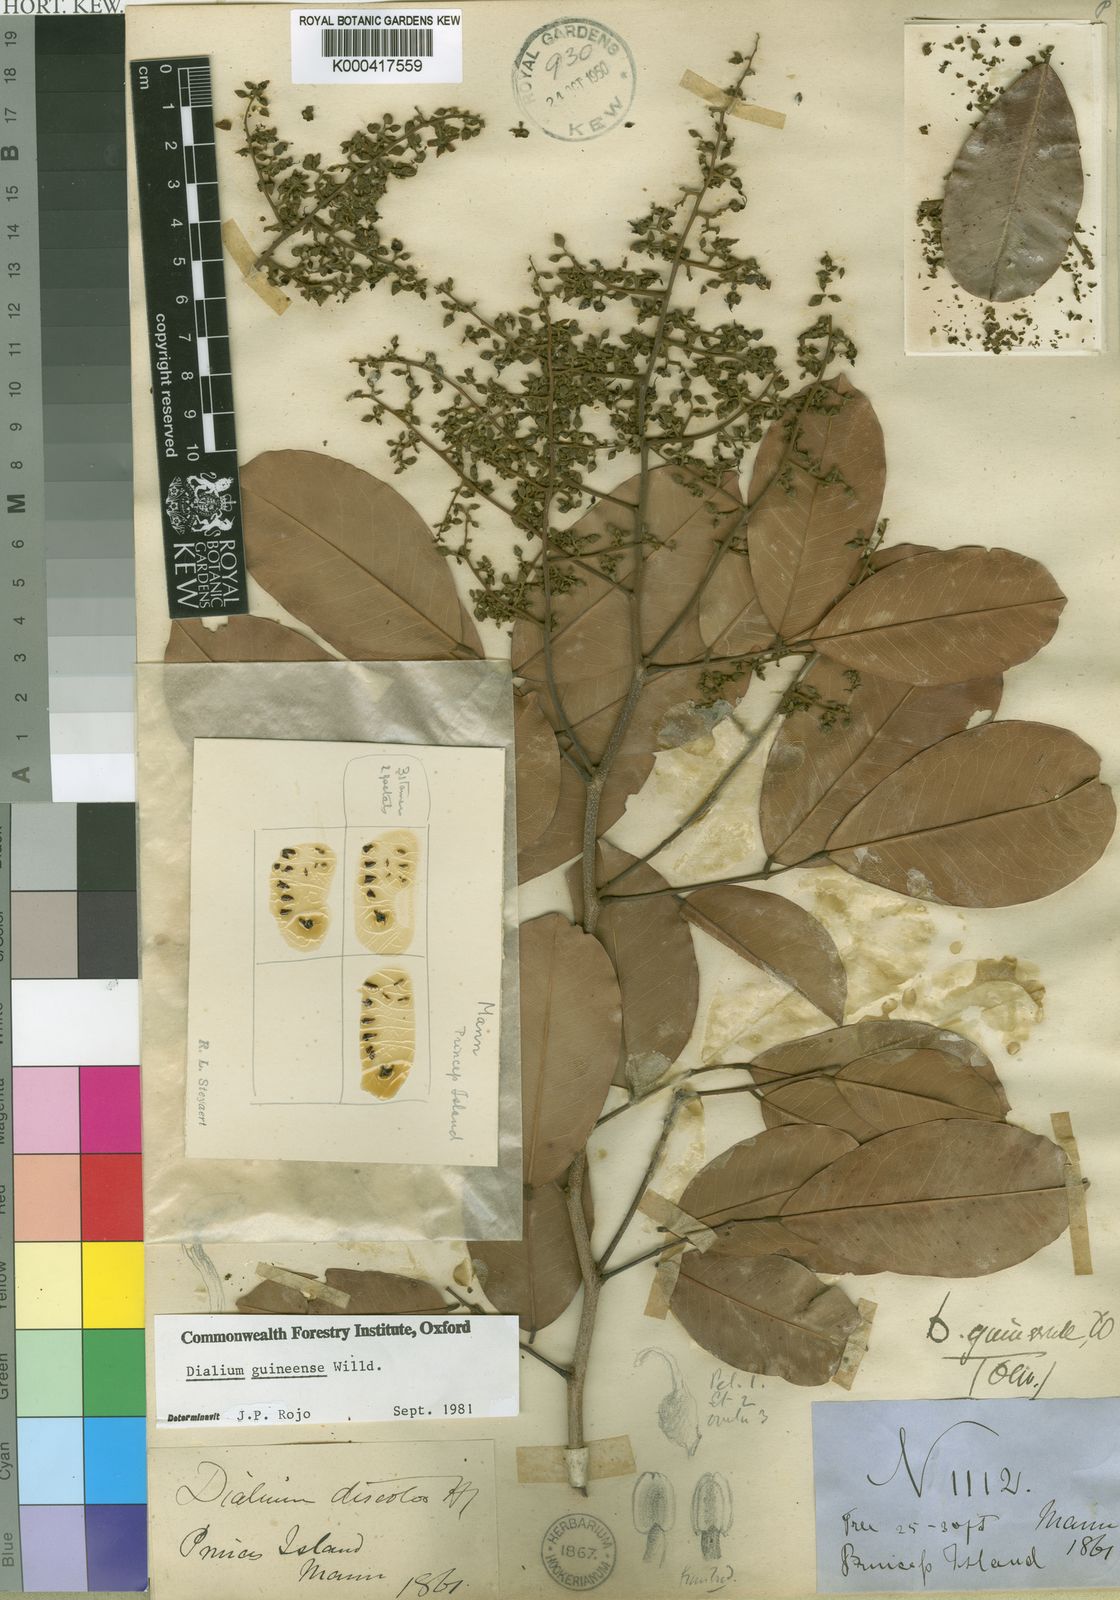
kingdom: Plantae
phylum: Tracheophyta
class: Magnoliopsida
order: Fabales
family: Fabaceae
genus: Dialium
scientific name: Dialium guineense
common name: Sierra leone-tamarind
